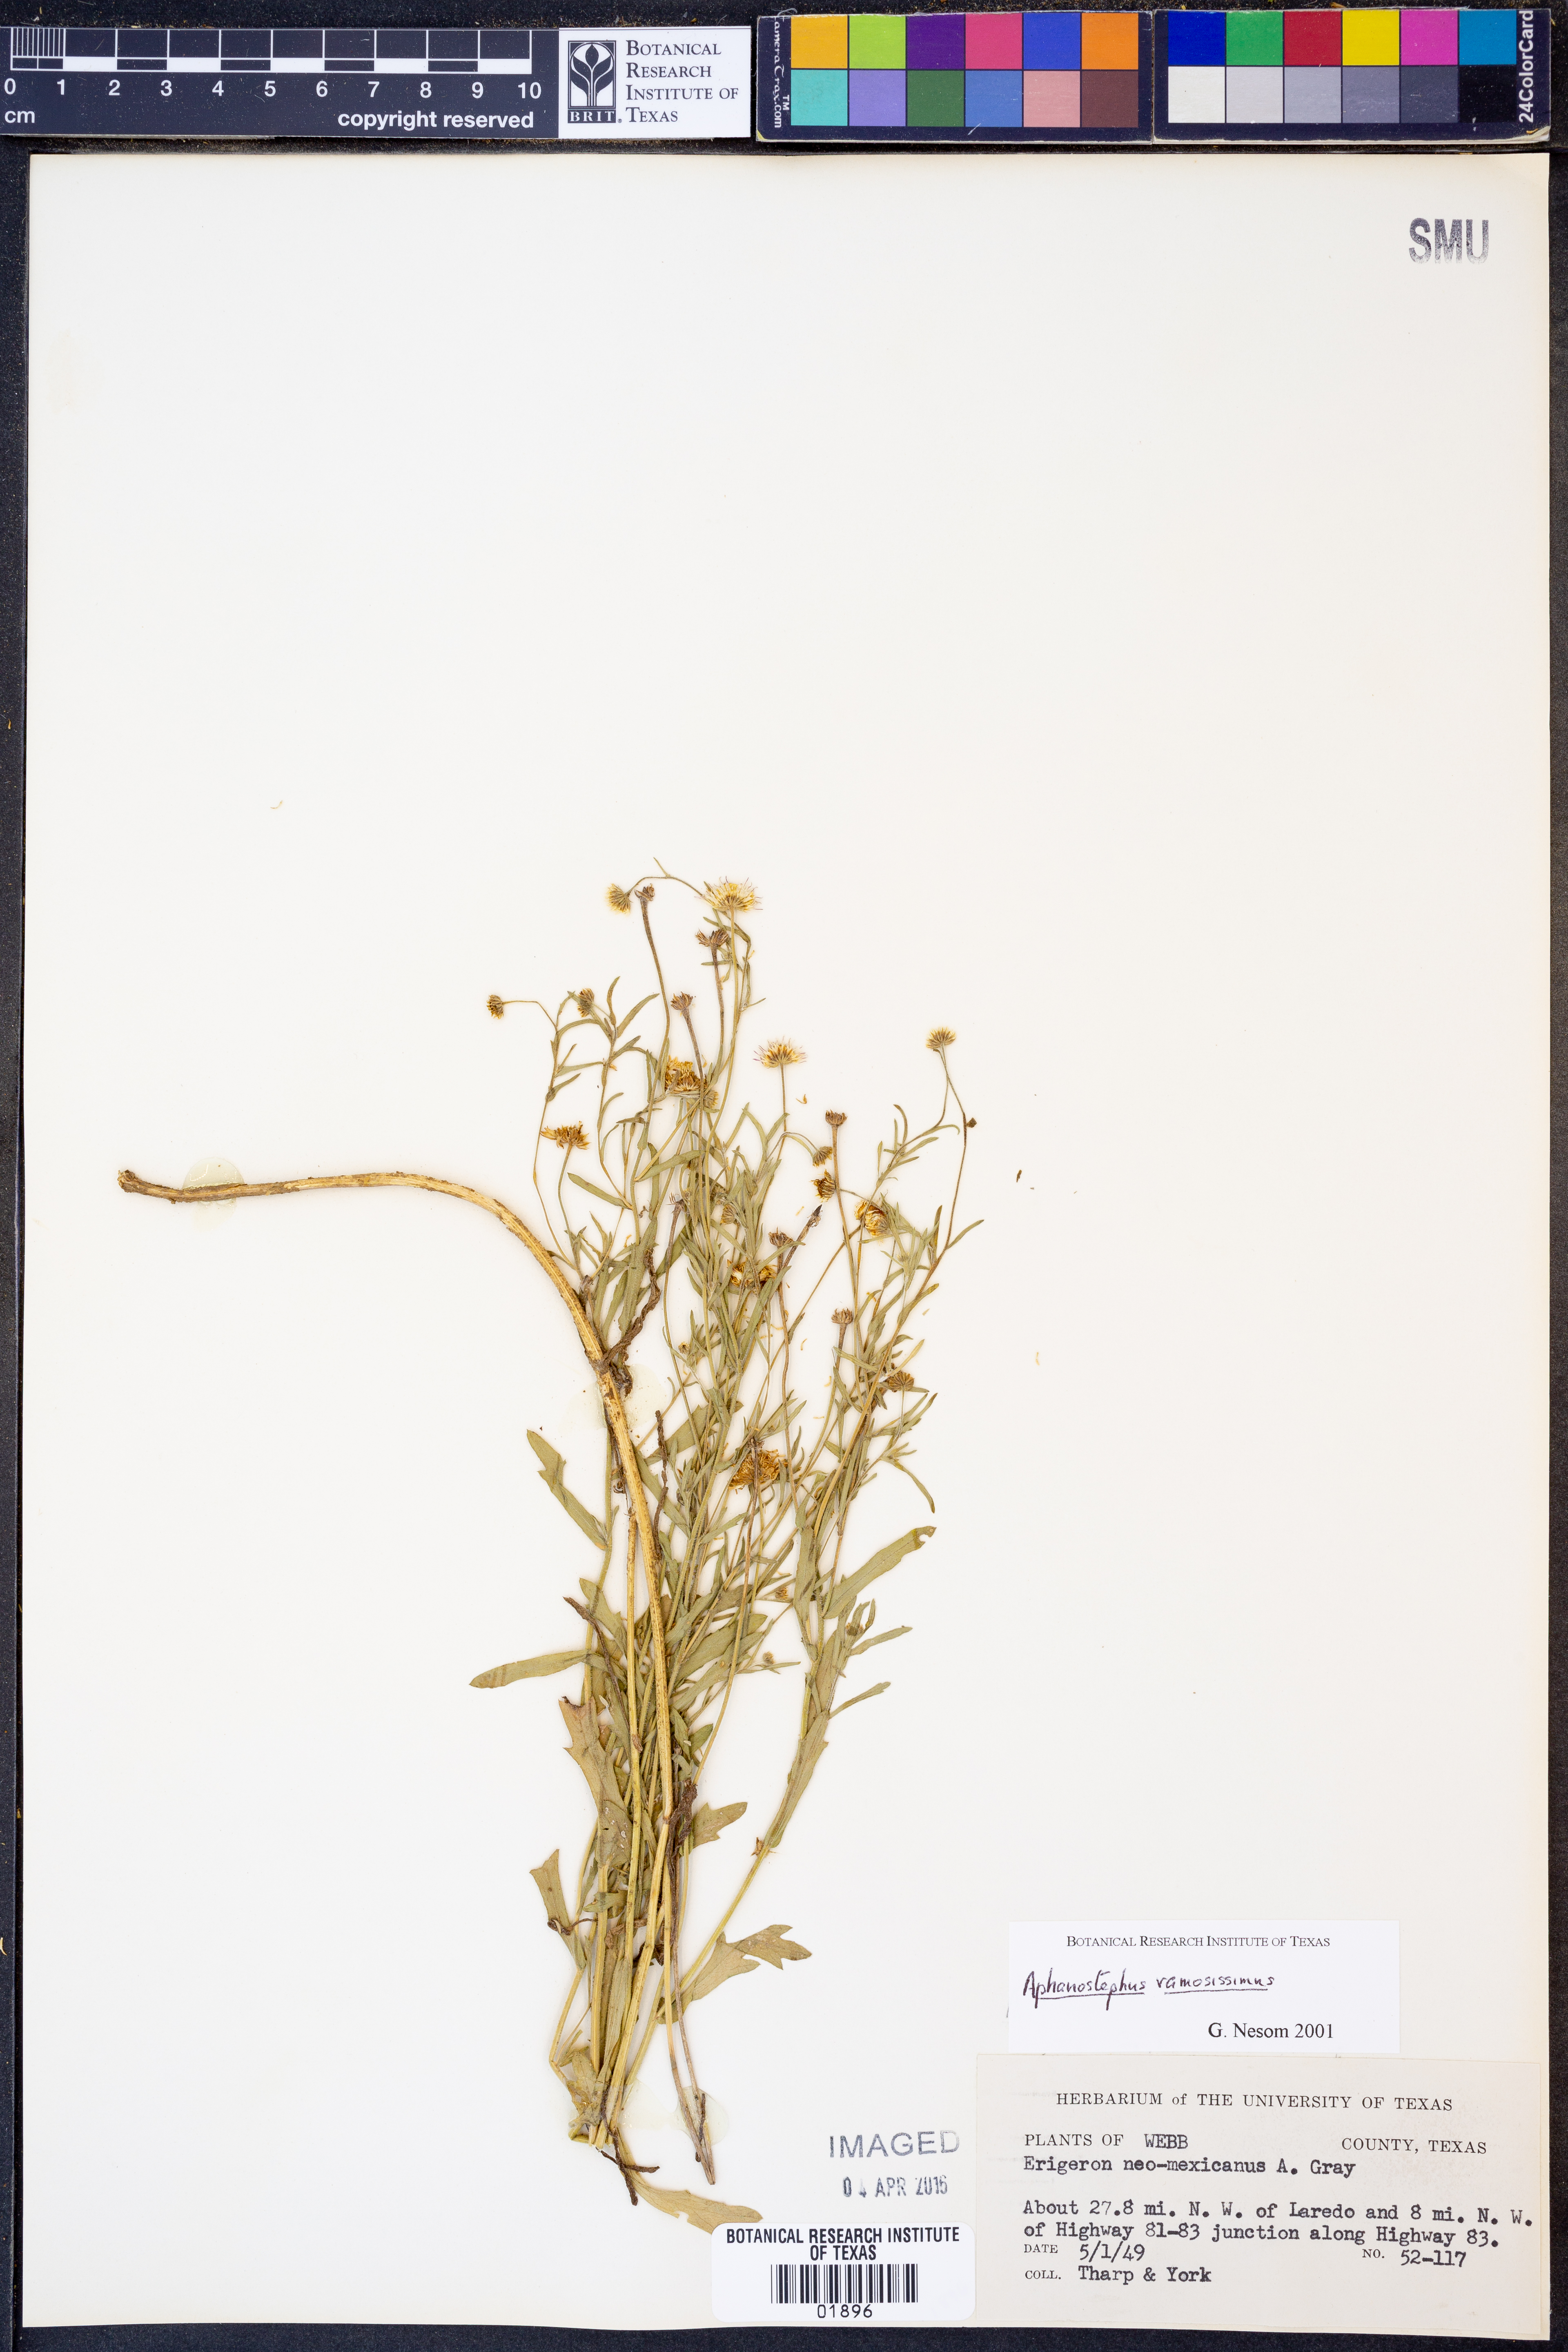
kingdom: Plantae
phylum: Tracheophyta
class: Magnoliopsida
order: Asterales
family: Asteraceae
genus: Aphanostephus
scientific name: Aphanostephus ramosissimus
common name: Plains lazy daisy
